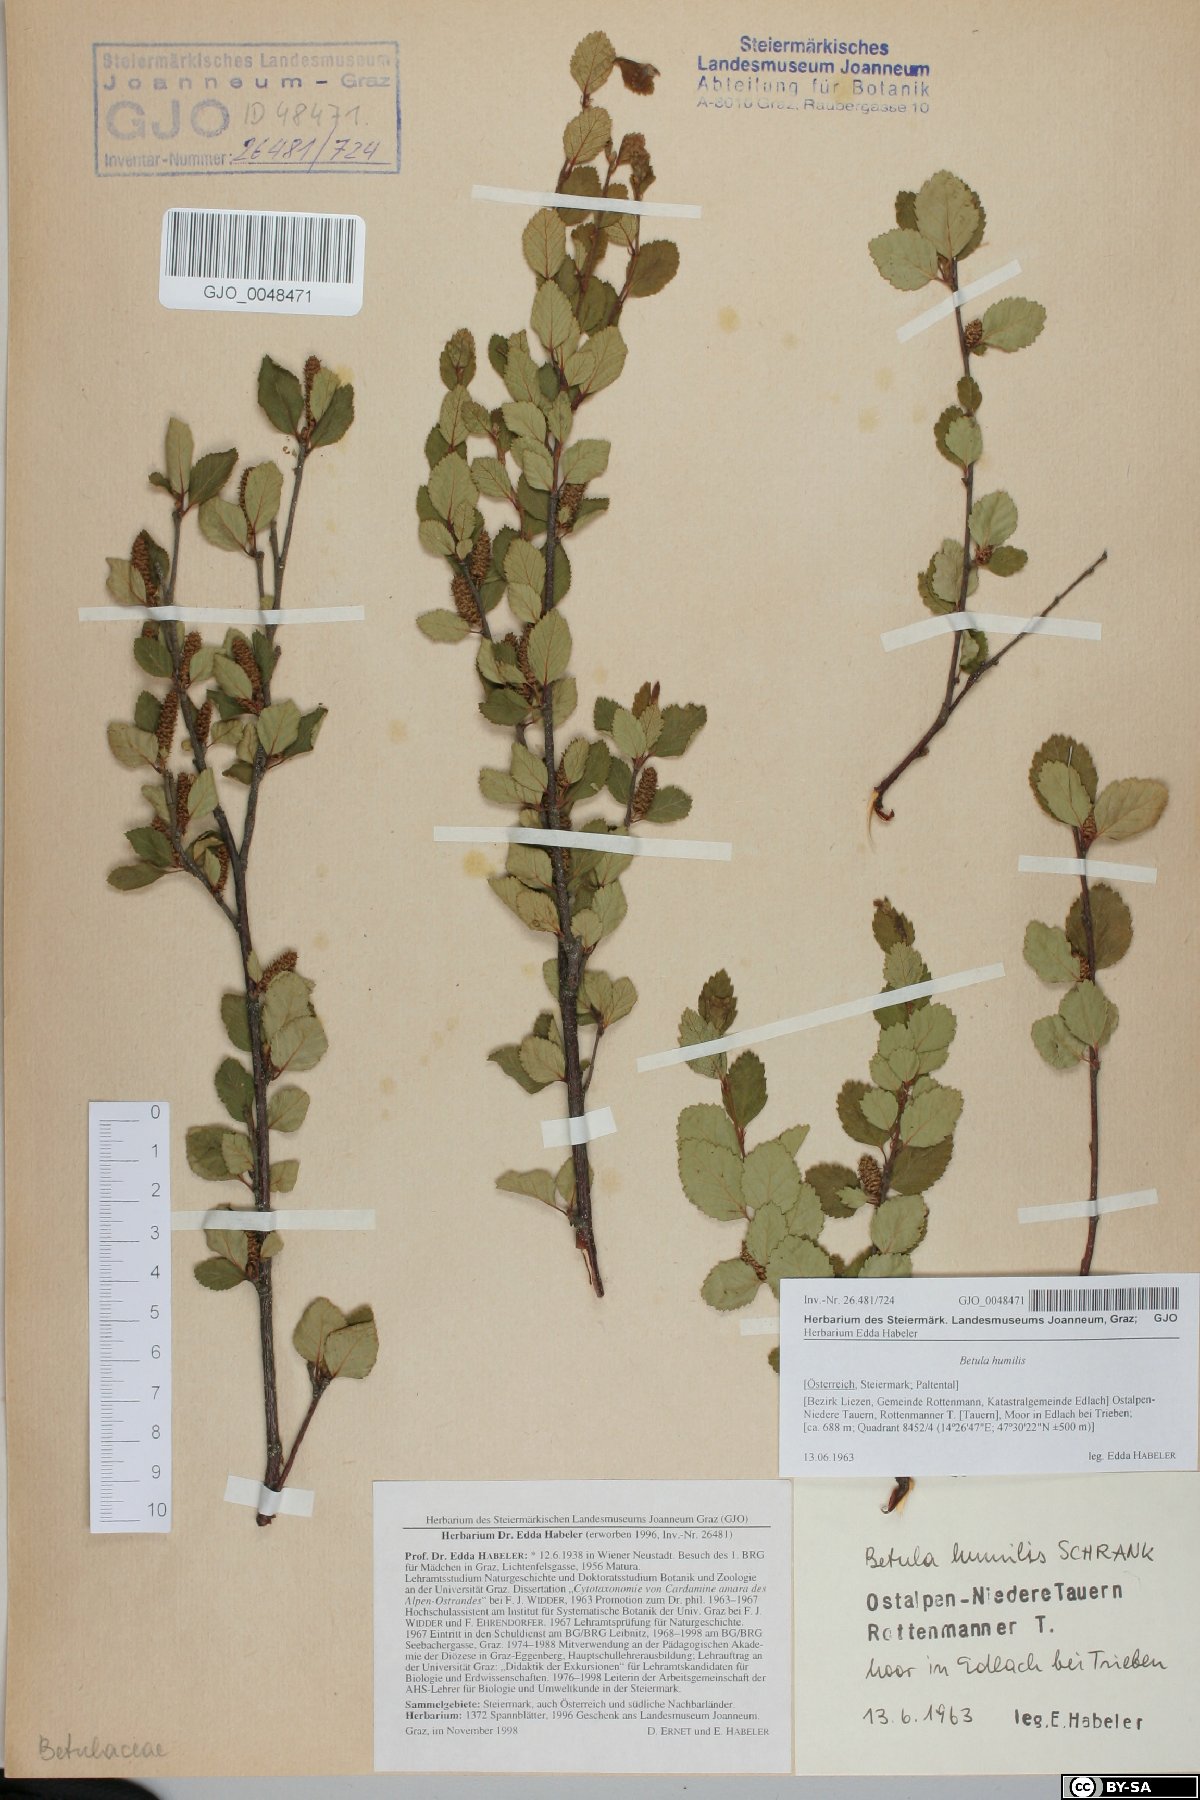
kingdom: Plantae
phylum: Tracheophyta
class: Magnoliopsida
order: Fagales
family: Betulaceae
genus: Betula
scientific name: Betula humilis
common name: Shrubby birch
